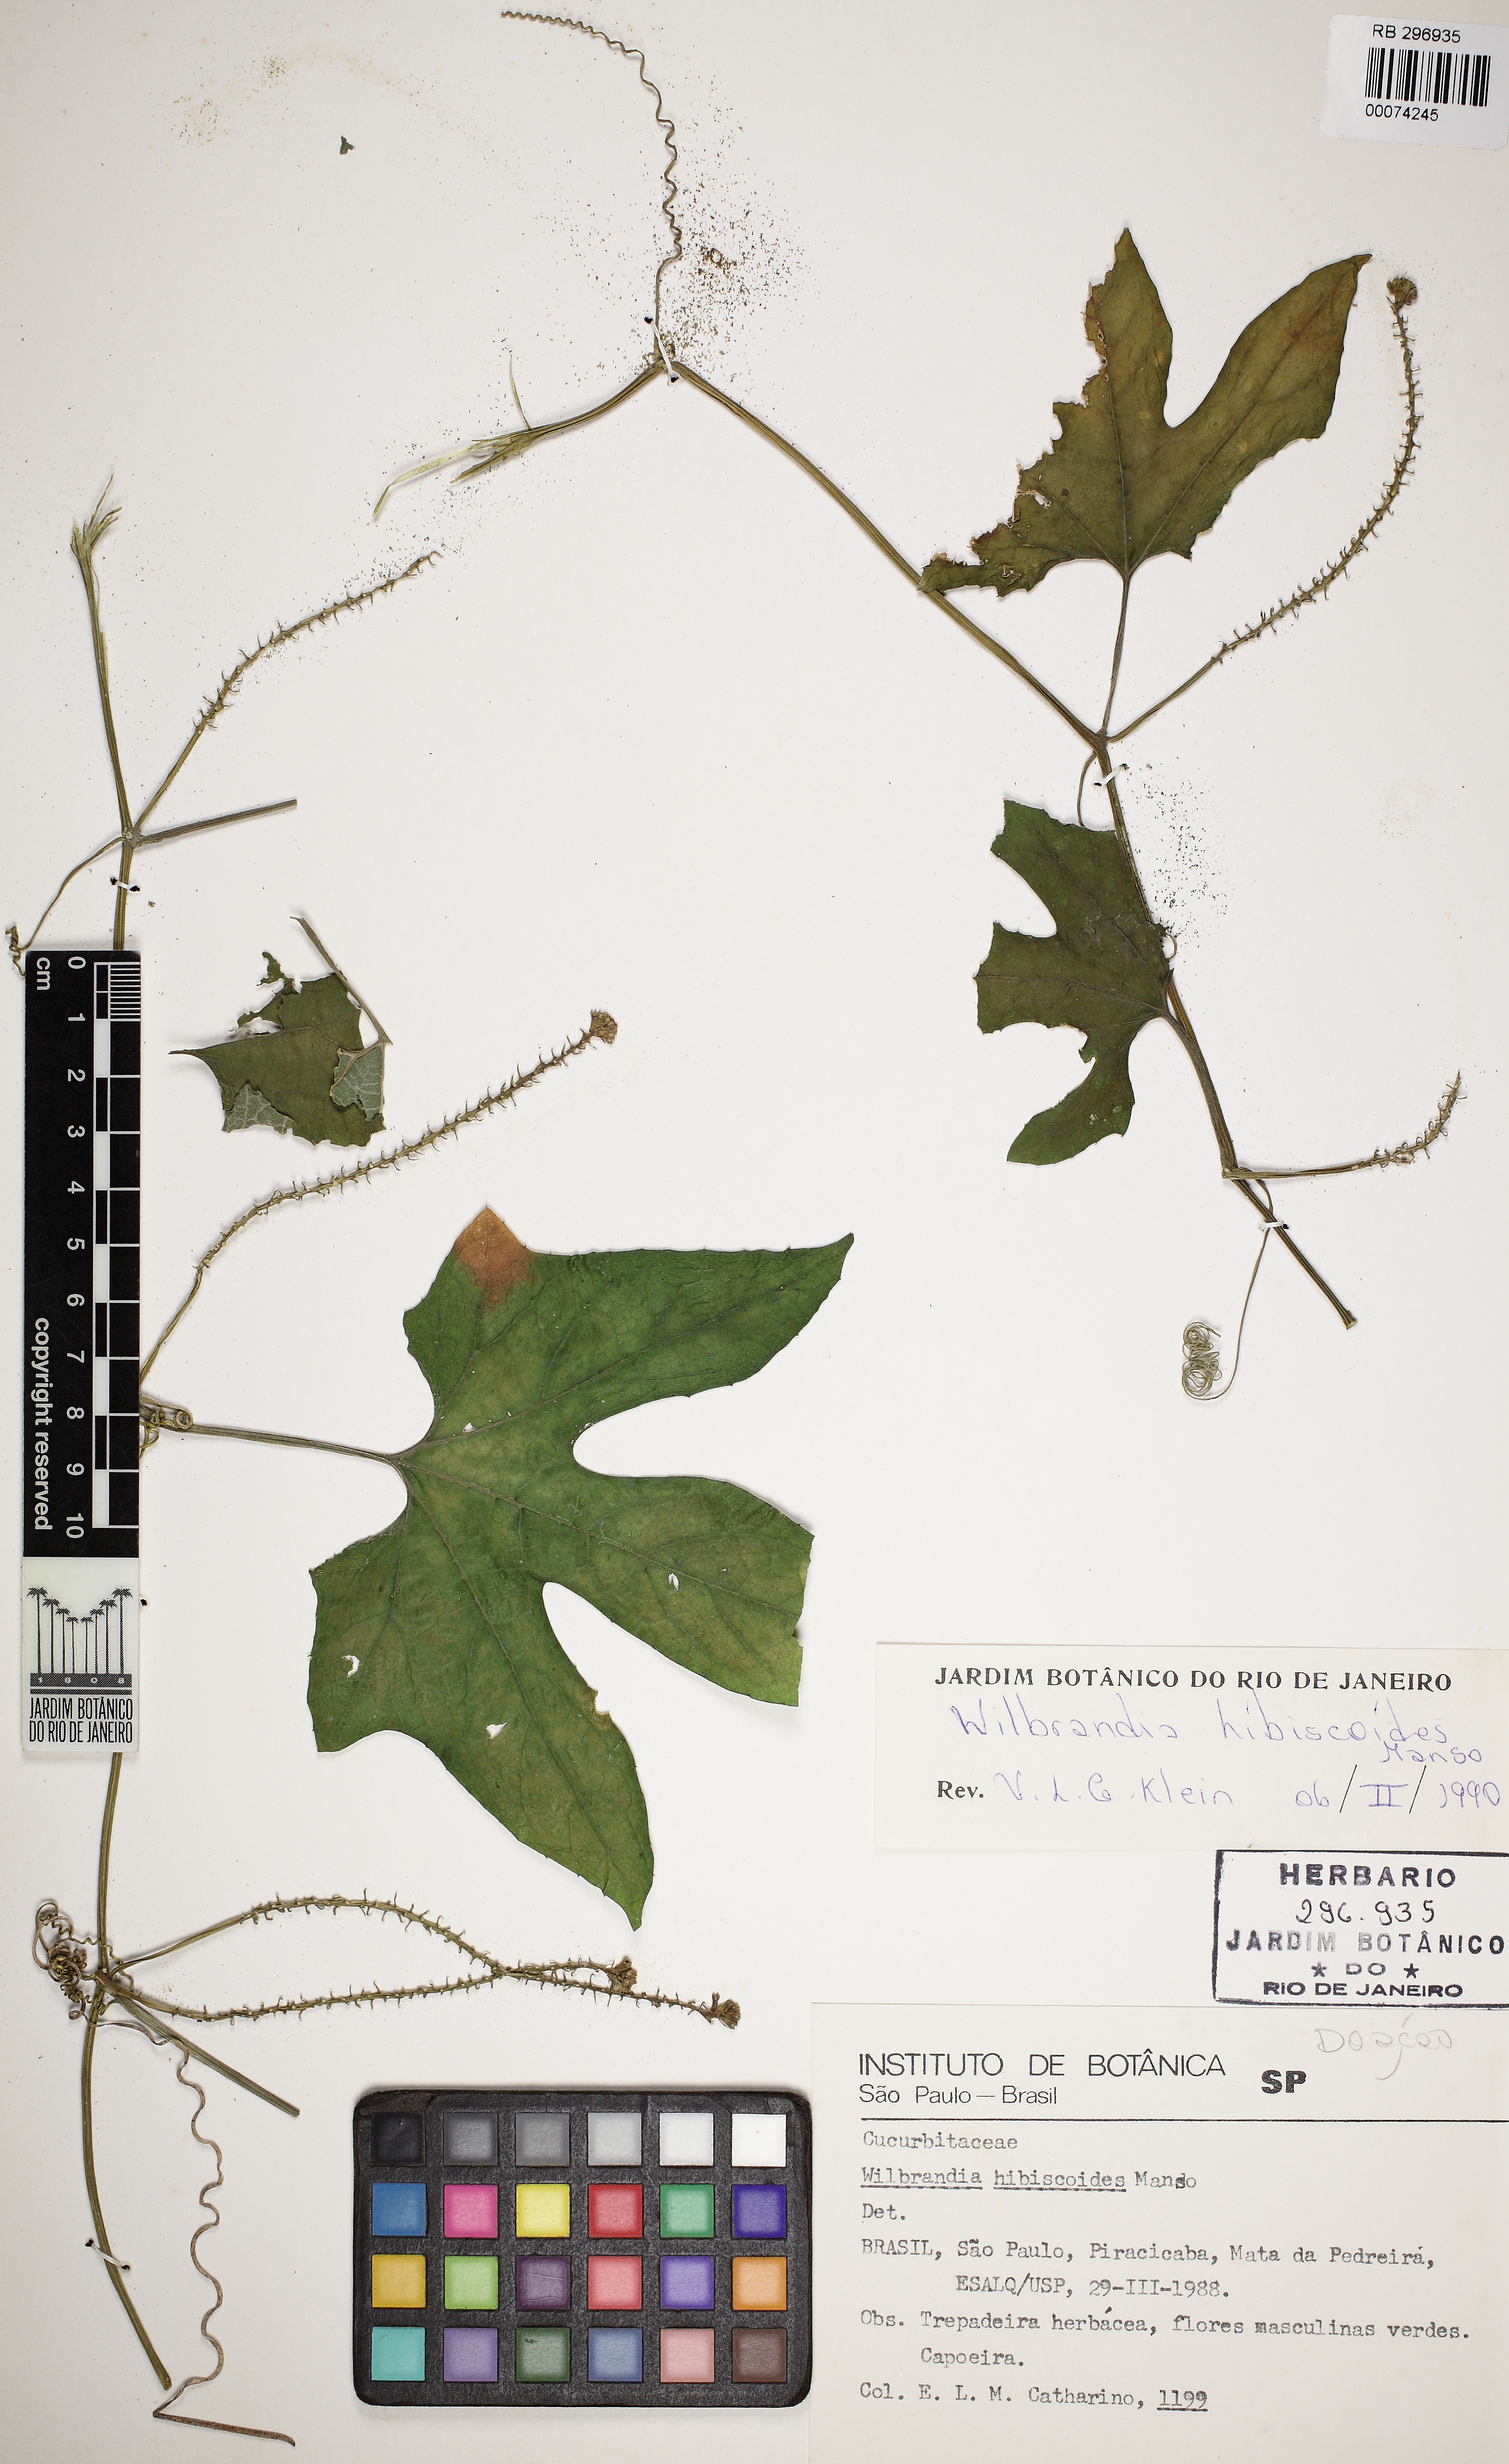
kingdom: Plantae
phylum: Tracheophyta
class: Magnoliopsida
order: Cucurbitales
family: Cucurbitaceae
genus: Wilbrandia
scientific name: Wilbrandia hibiscoides
